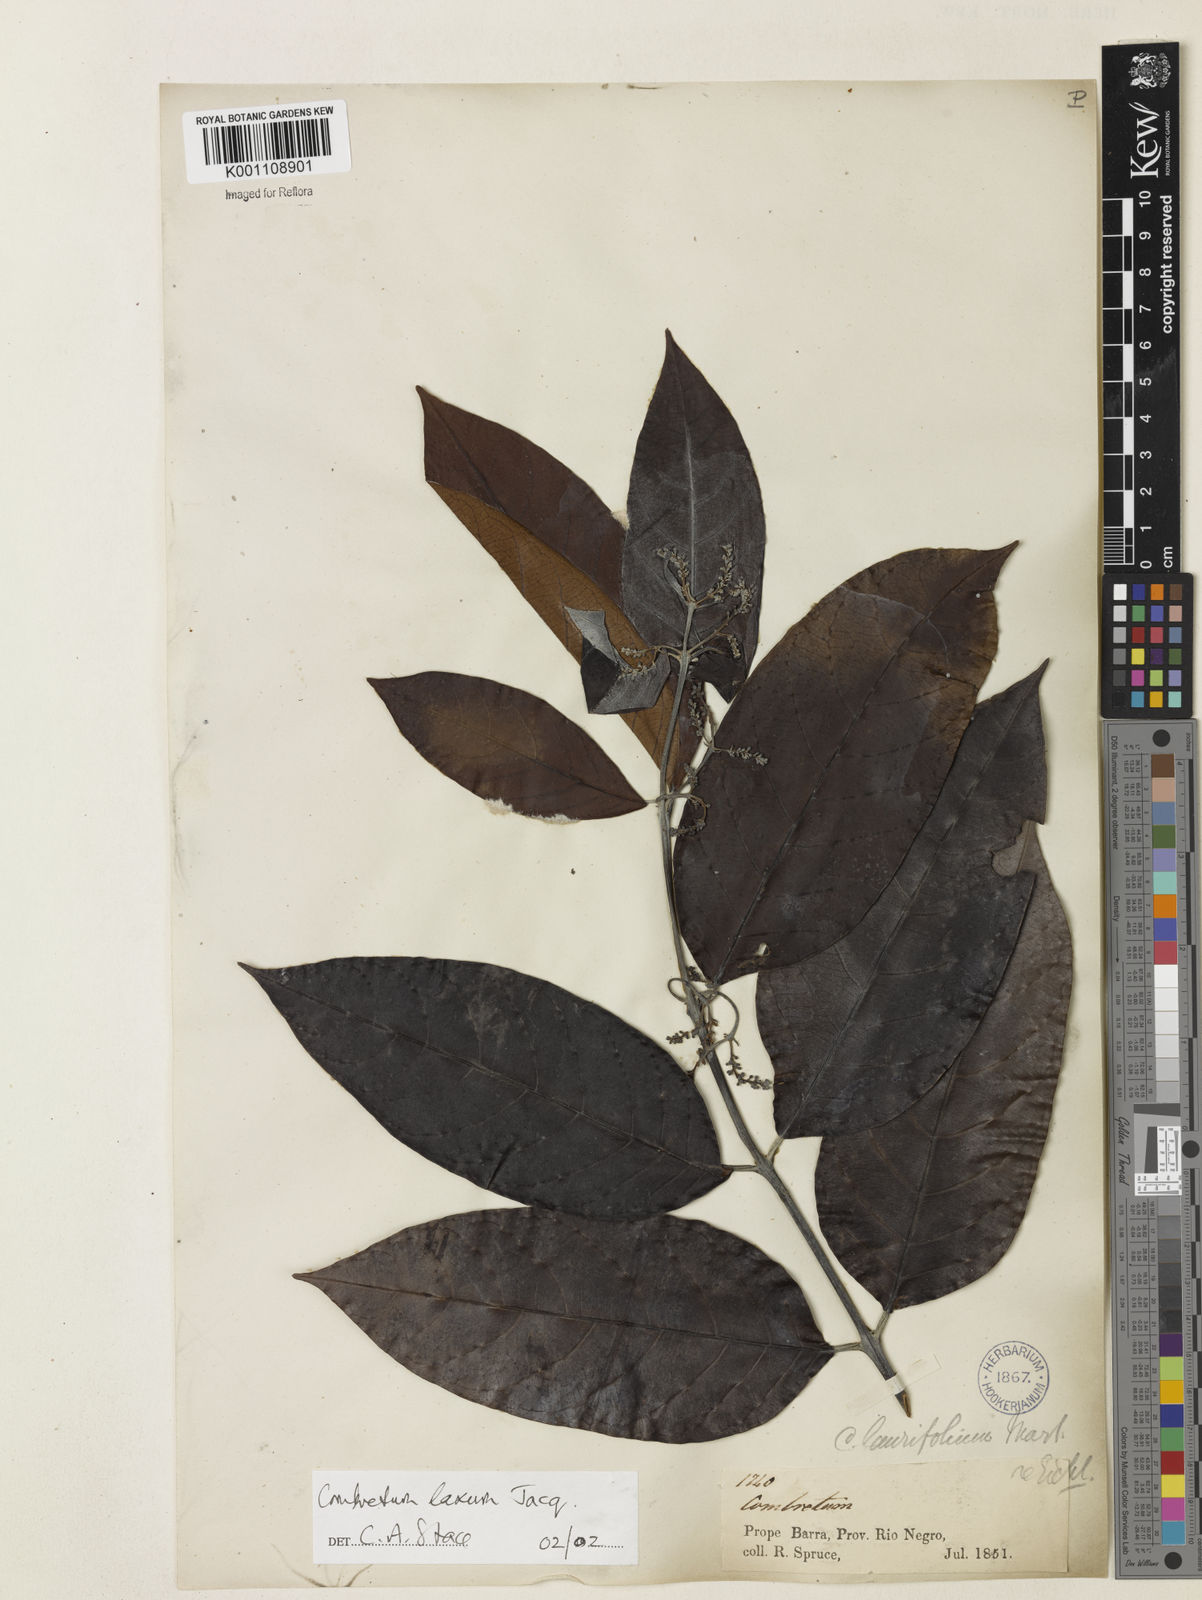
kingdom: Plantae
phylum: Tracheophyta
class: Magnoliopsida
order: Myrtales
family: Combretaceae
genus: Combretum
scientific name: Combretum laxum
